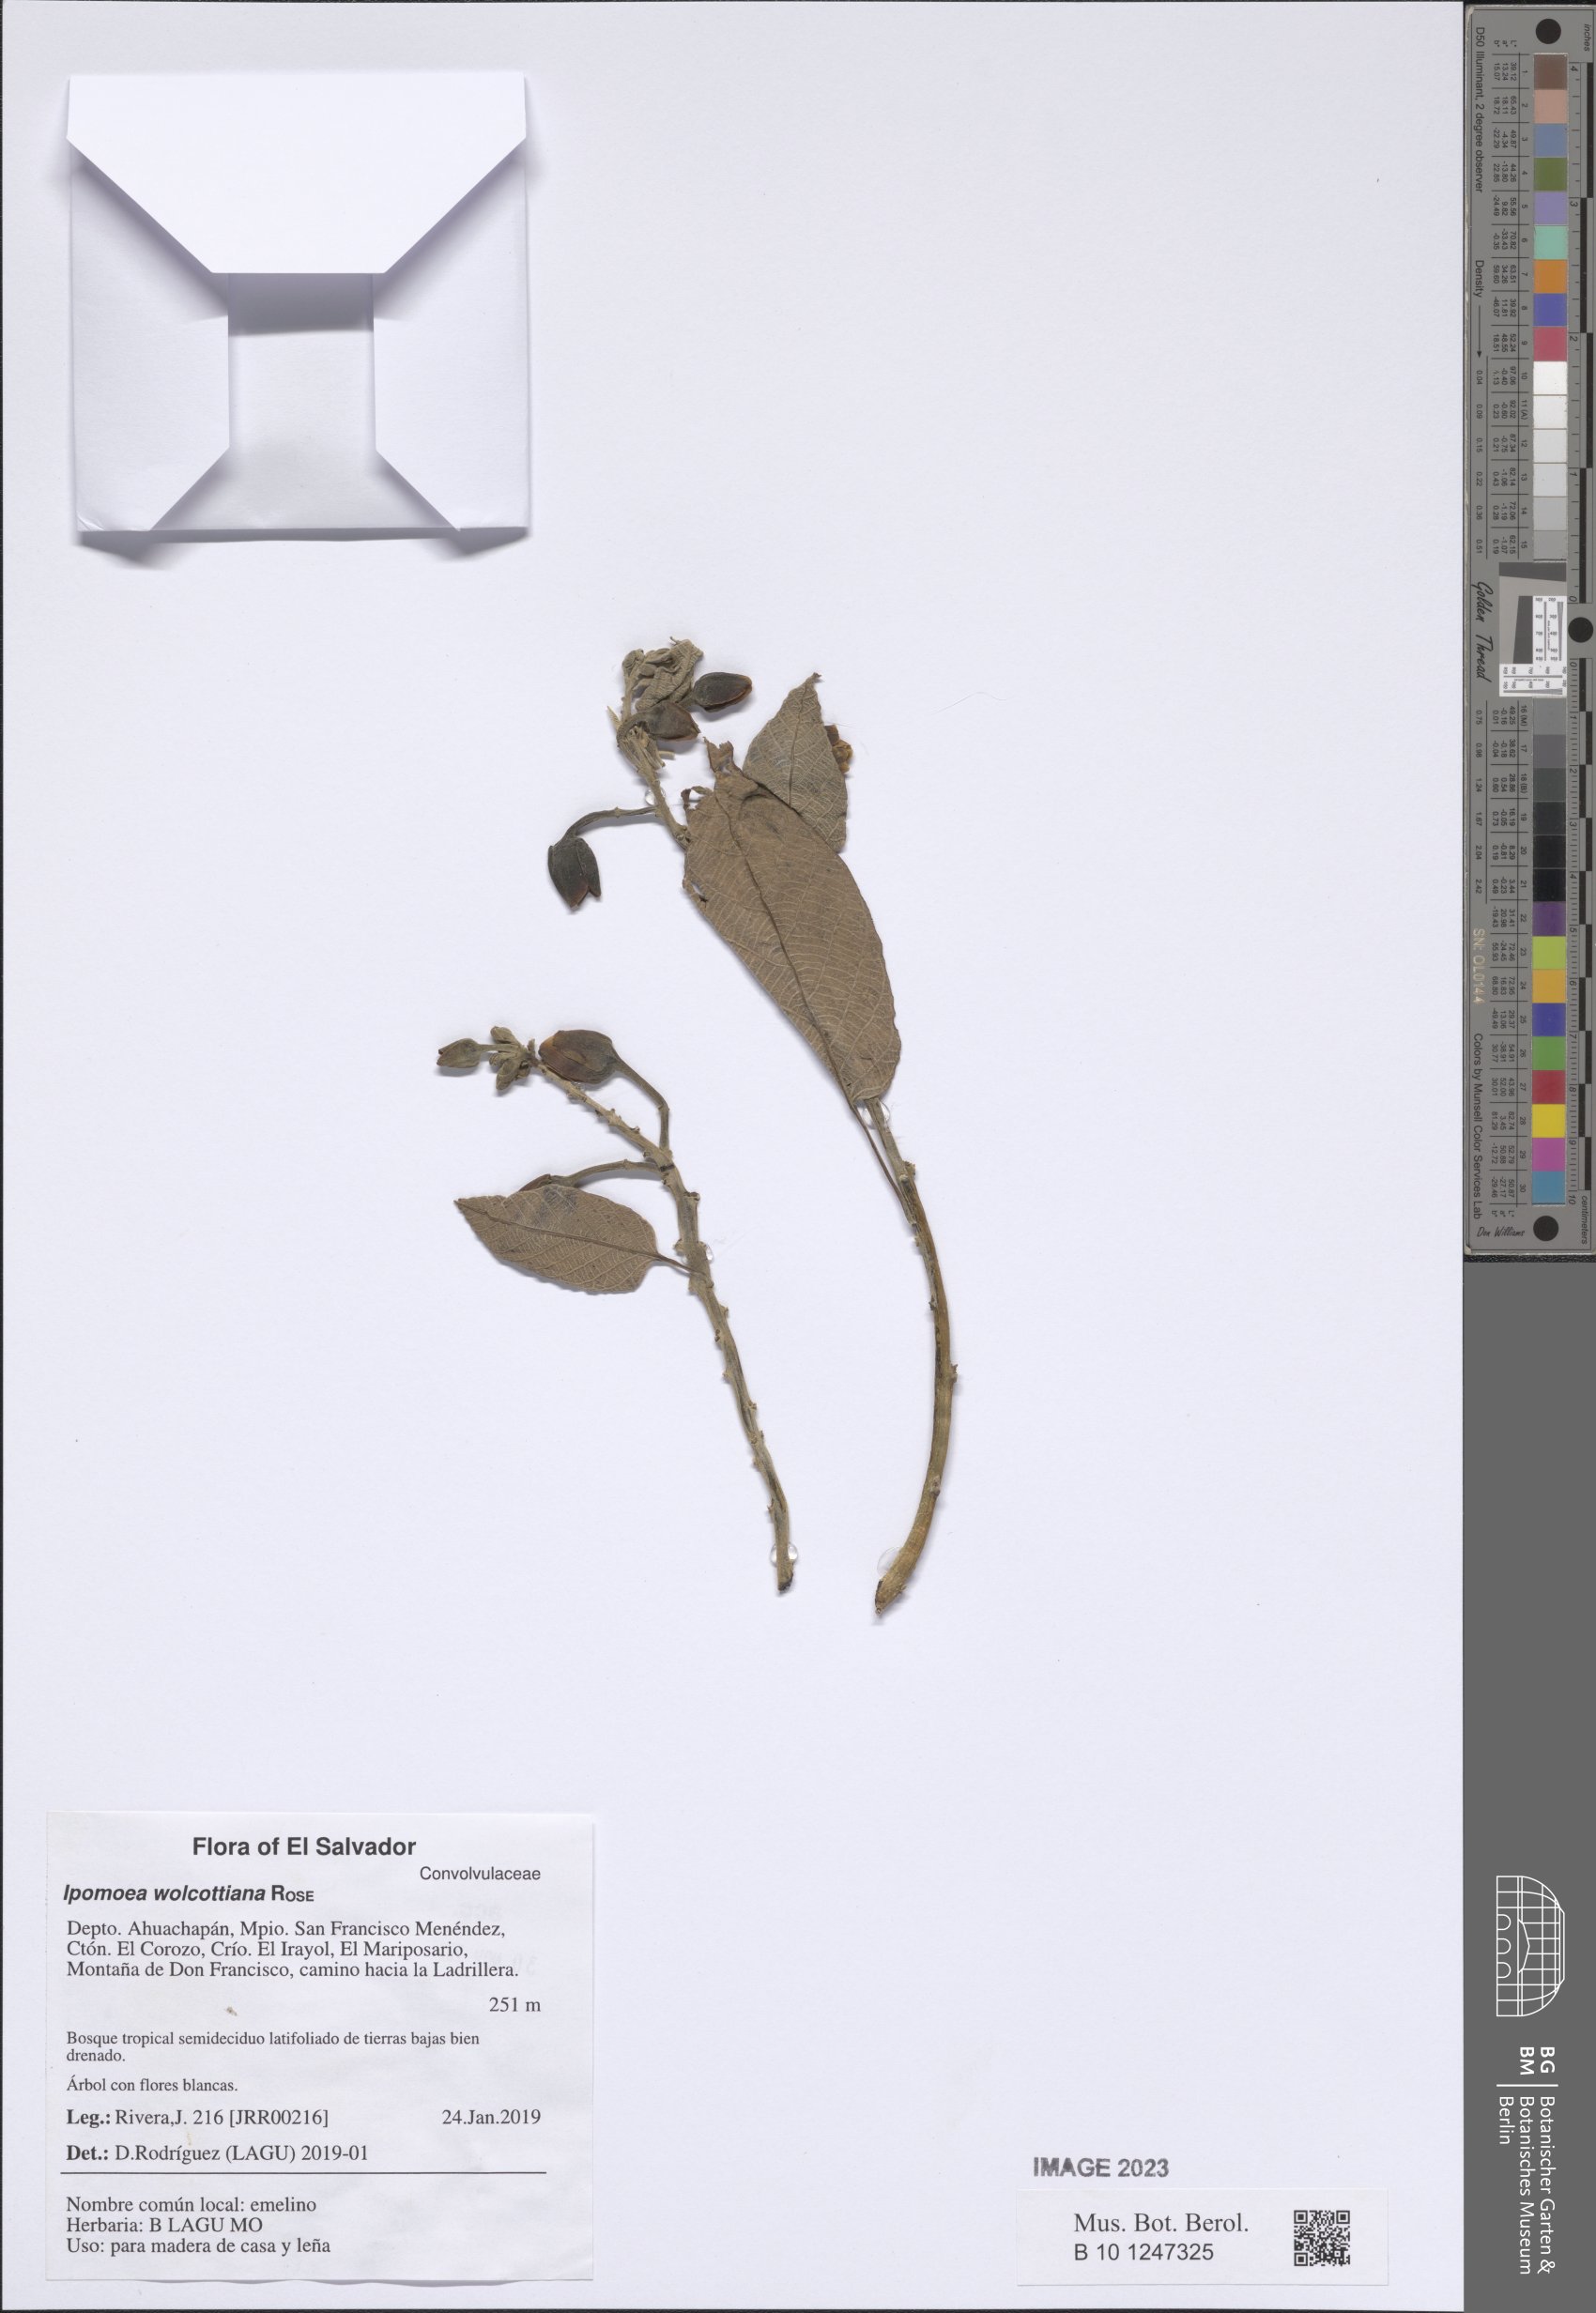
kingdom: Plantae
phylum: Tracheophyta
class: Magnoliopsida
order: Solanales
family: Convolvulaceae
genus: Ipomoea
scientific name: Ipomoea wolcottiana
